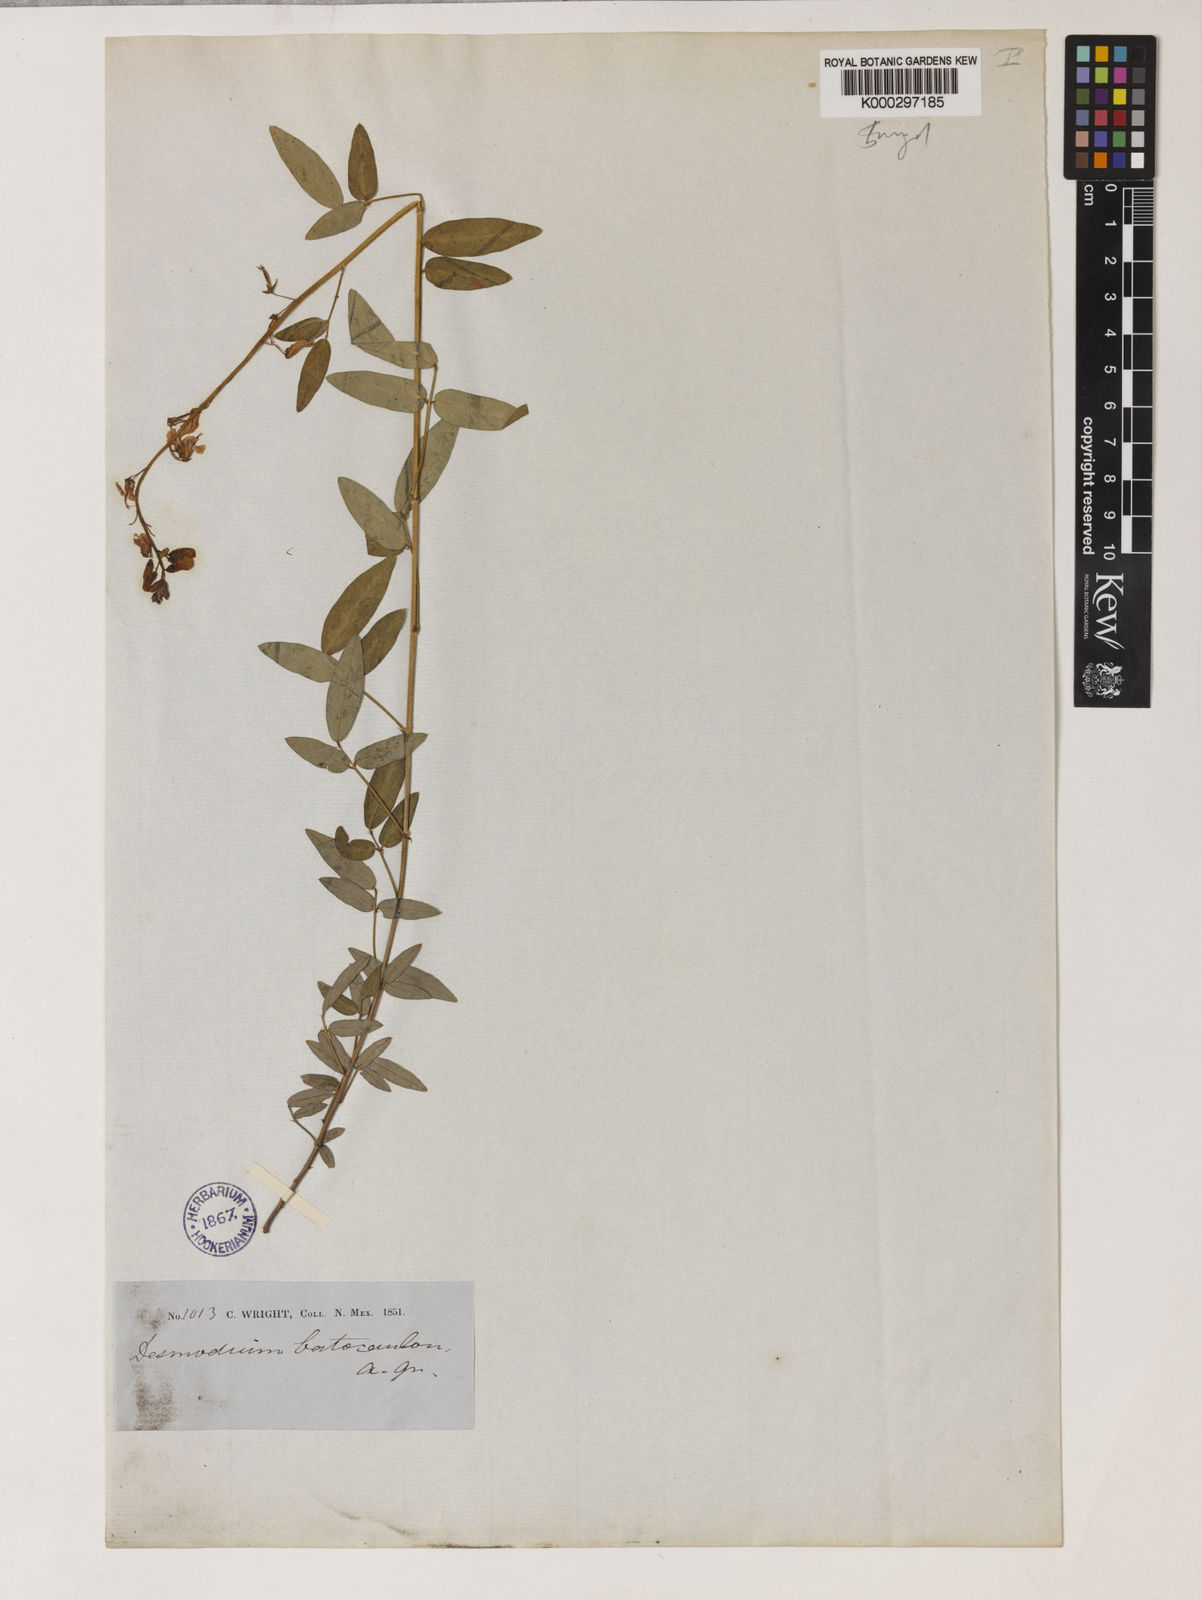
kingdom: Plantae
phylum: Tracheophyta
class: Magnoliopsida
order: Fabales
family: Fabaceae
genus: Desmodium
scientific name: Desmodium batocaulon
